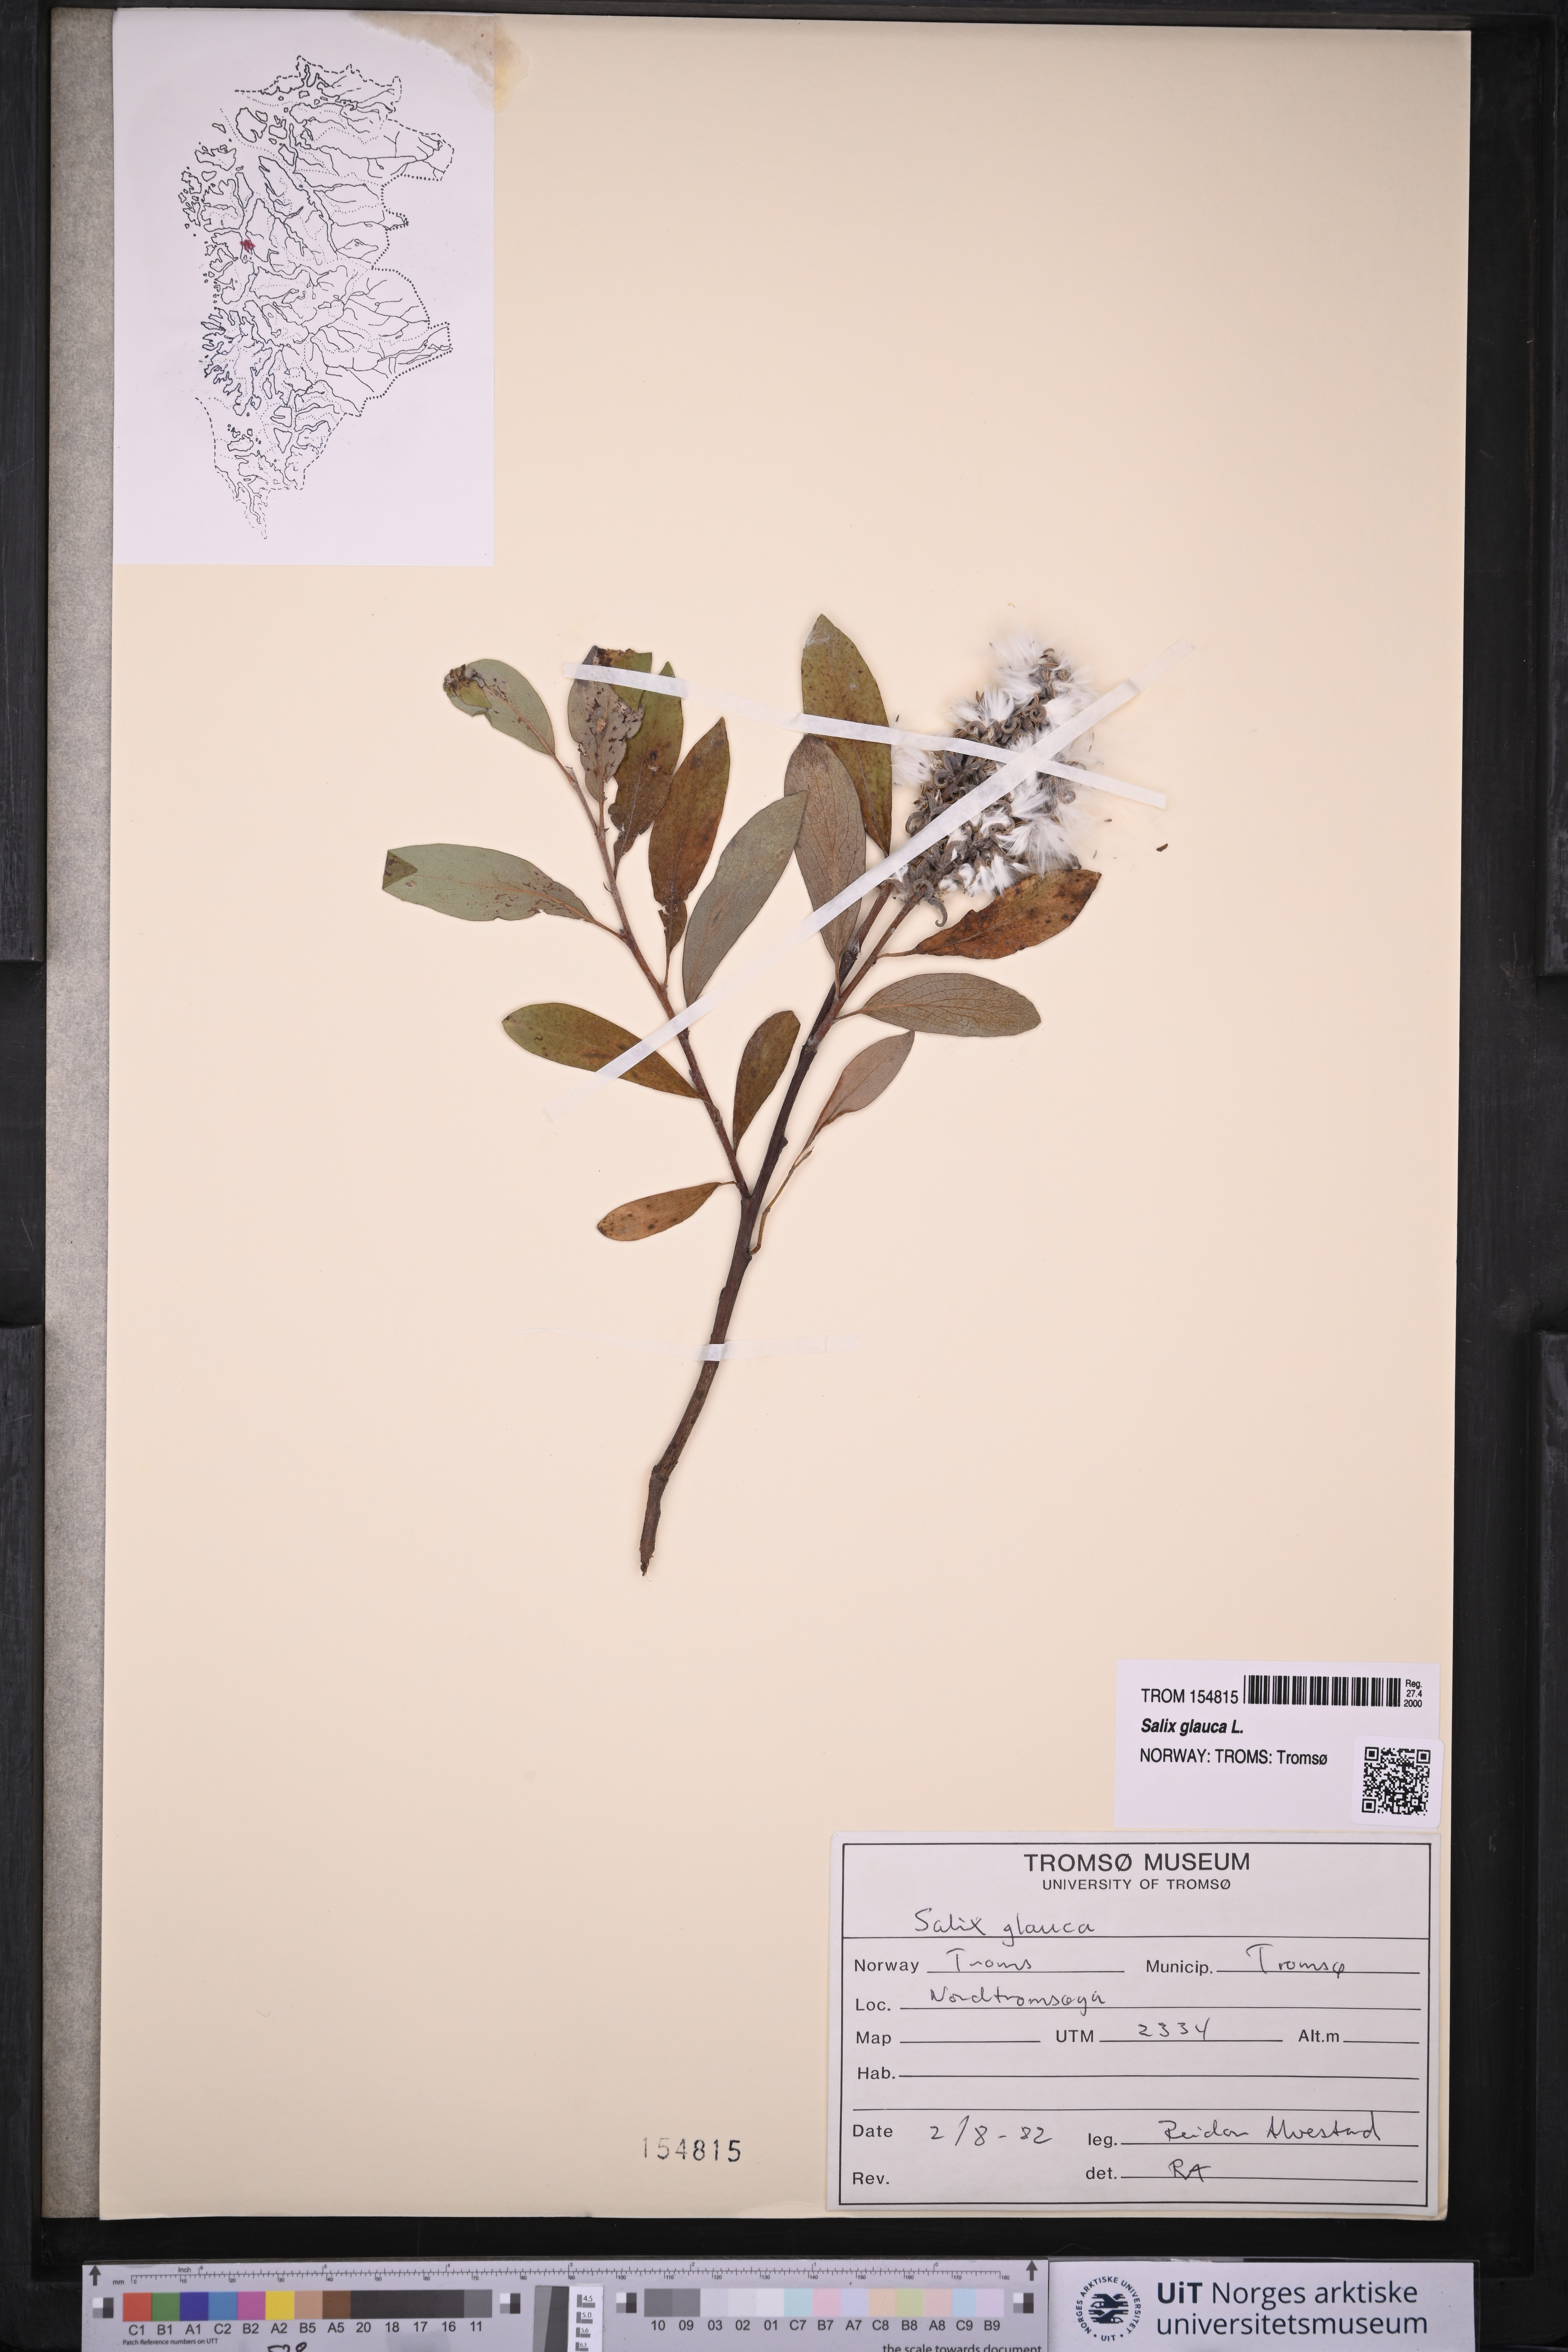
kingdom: Plantae
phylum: Tracheophyta
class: Magnoliopsida
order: Malpighiales
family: Salicaceae
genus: Salix
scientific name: Salix glauca
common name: Glaucous willow
